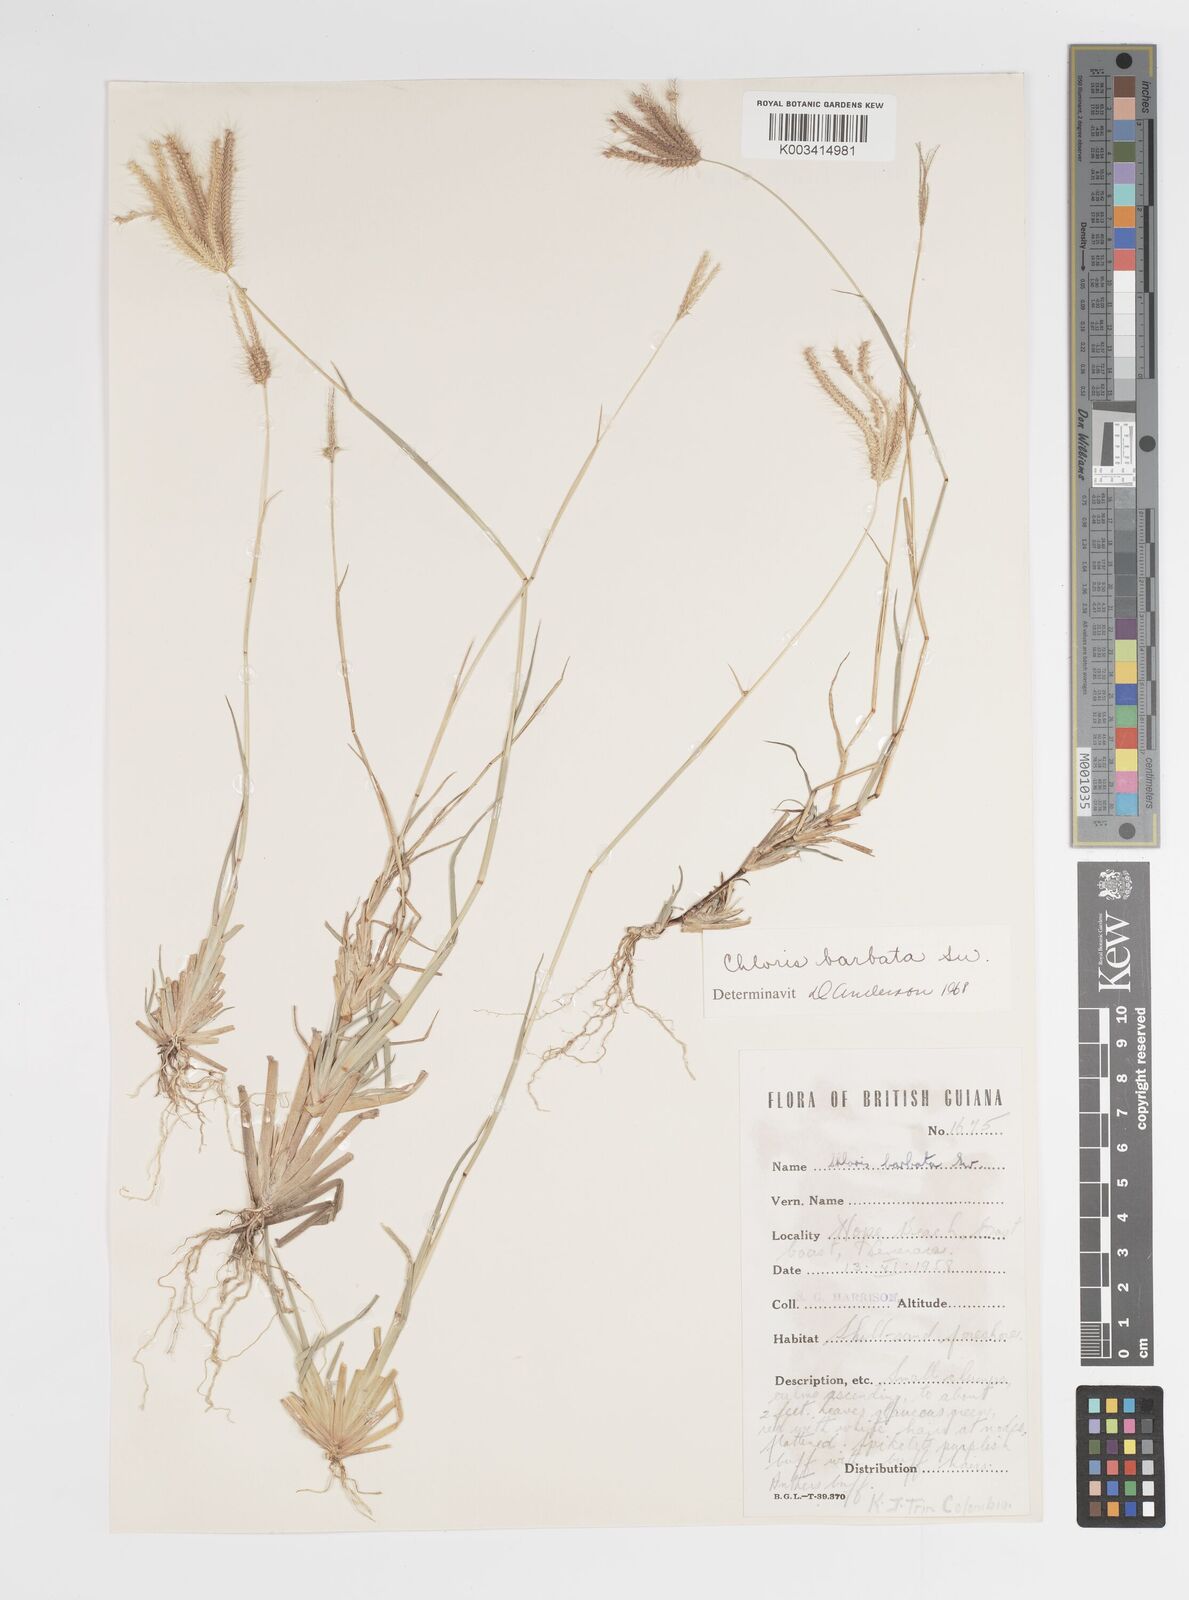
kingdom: Plantae
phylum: Tracheophyta
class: Liliopsida
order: Poales
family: Poaceae
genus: Chloris
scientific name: Chloris barbata
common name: Swollen fingergrass
